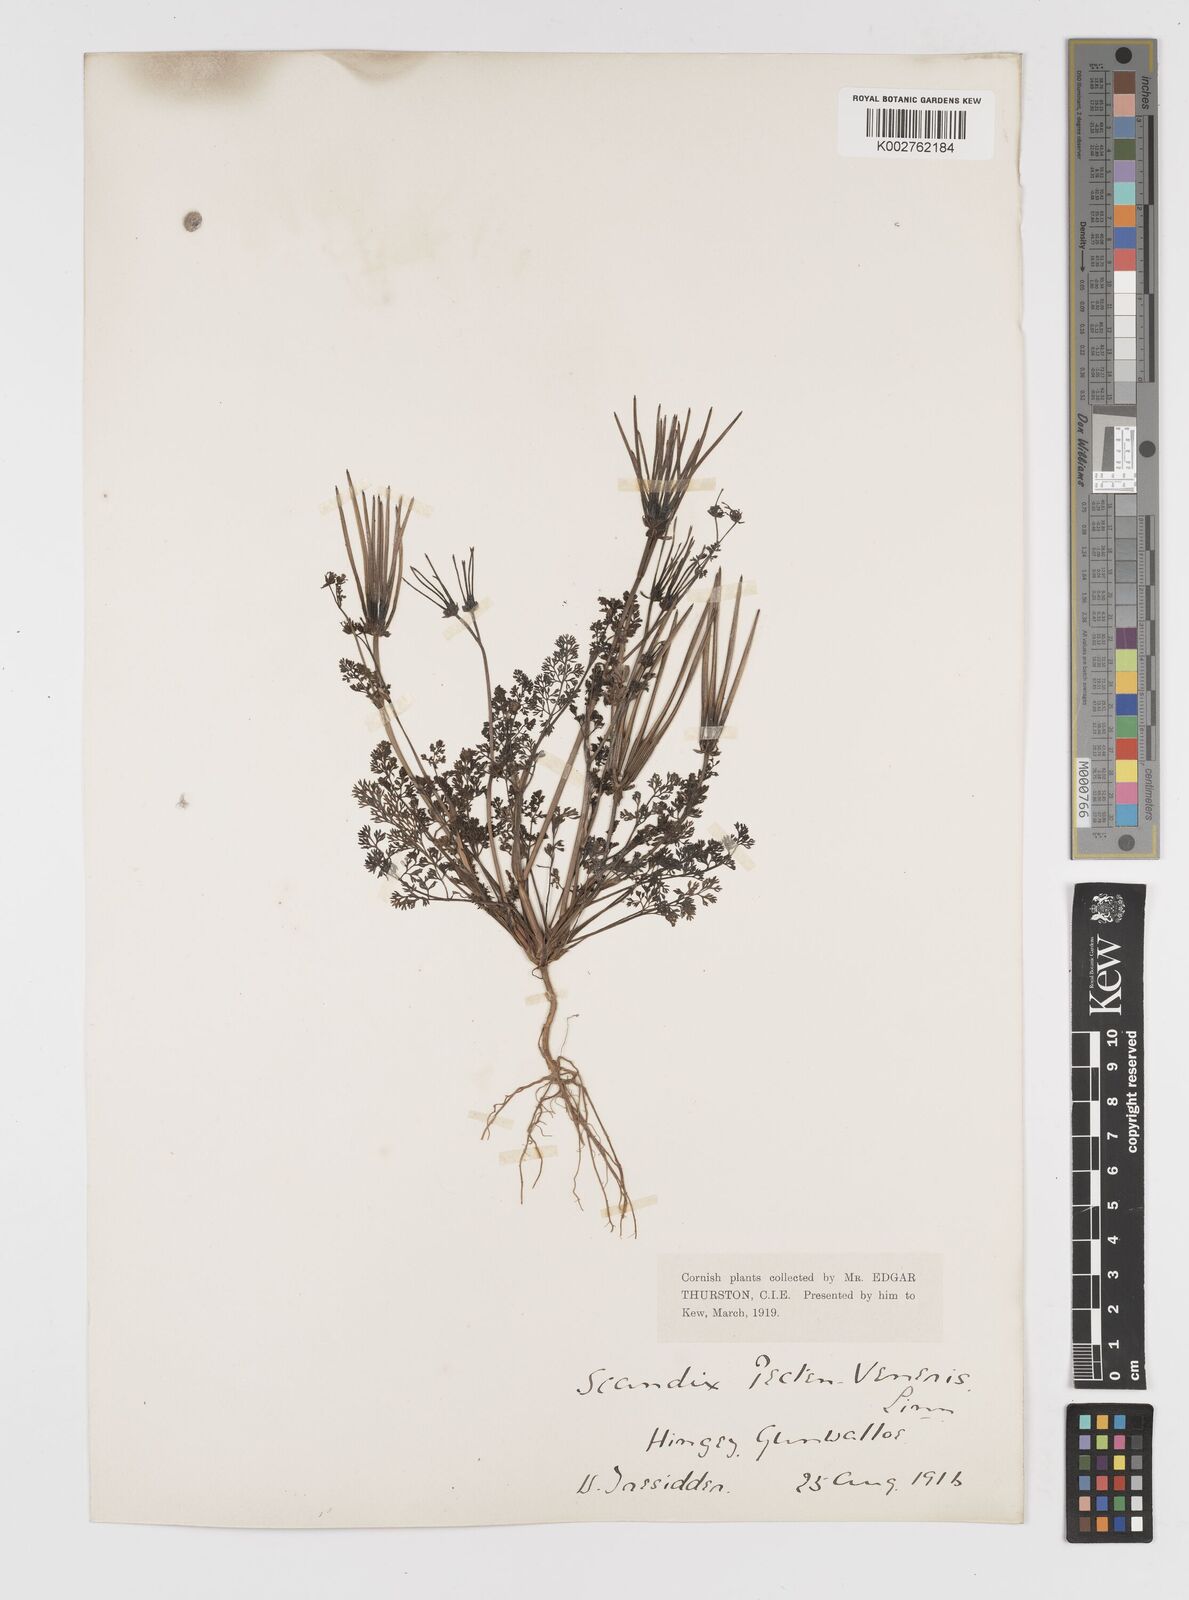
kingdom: Plantae
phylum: Tracheophyta
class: Magnoliopsida
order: Apiales
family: Apiaceae
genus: Scandix
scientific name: Scandix pecten-veneris
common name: Shepherd's-needle
